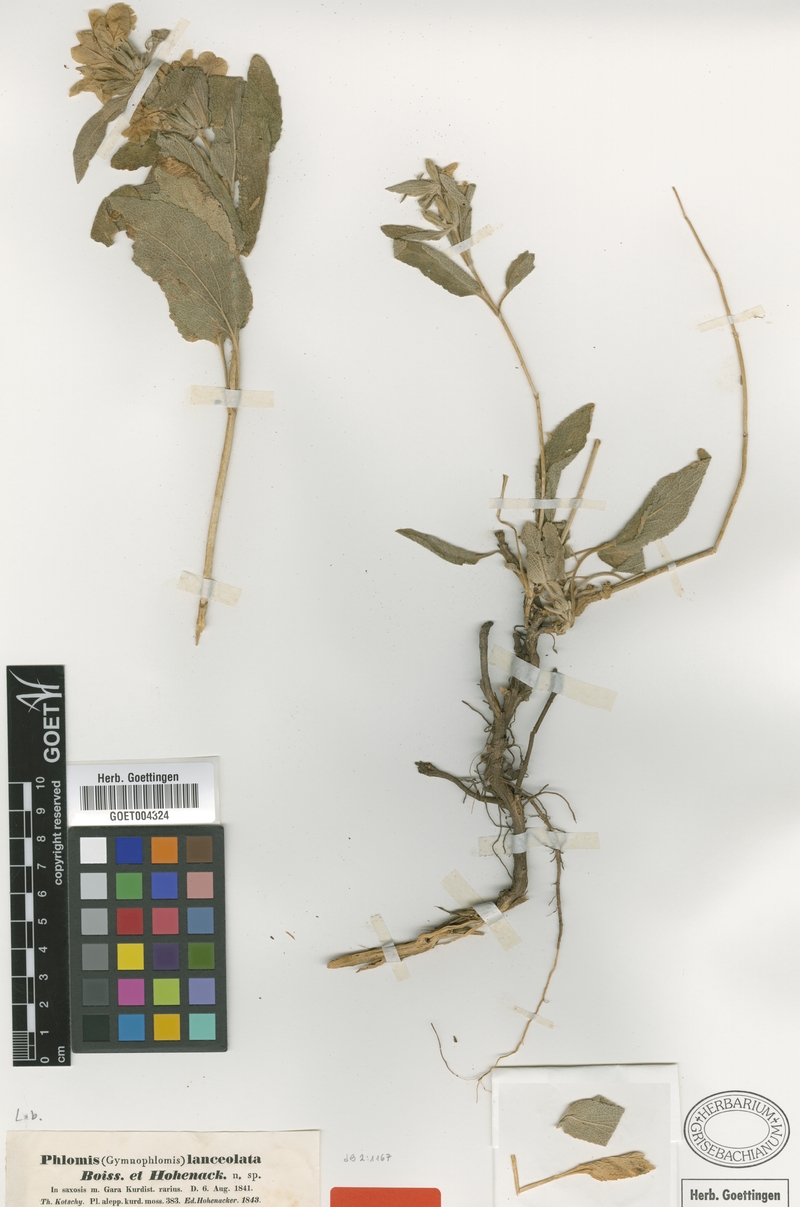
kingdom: Plantae
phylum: Tracheophyta
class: Magnoliopsida
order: Lamiales
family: Lamiaceae
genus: Phlomis
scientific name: Phlomis lanceolata
